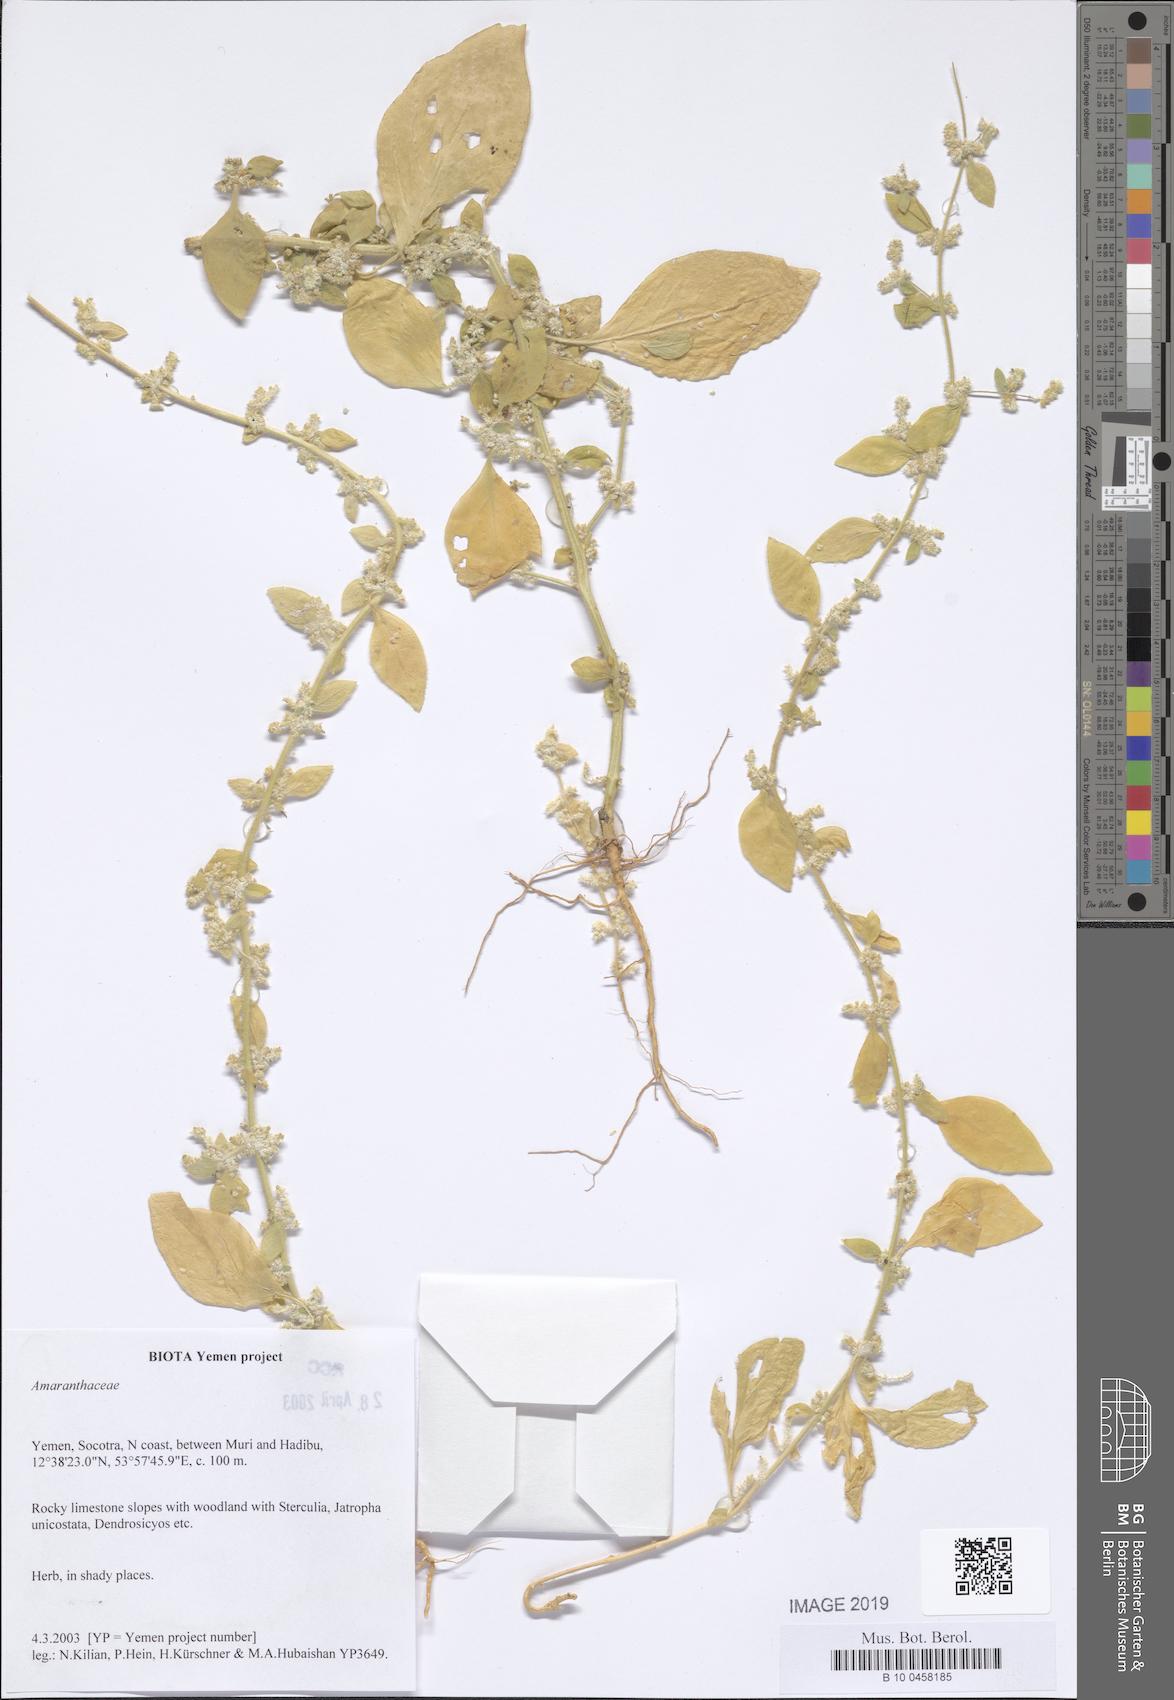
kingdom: Plantae
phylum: Tracheophyta
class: Magnoliopsida
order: Caryophyllales
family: Amaranthaceae
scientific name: Amaranthaceae
